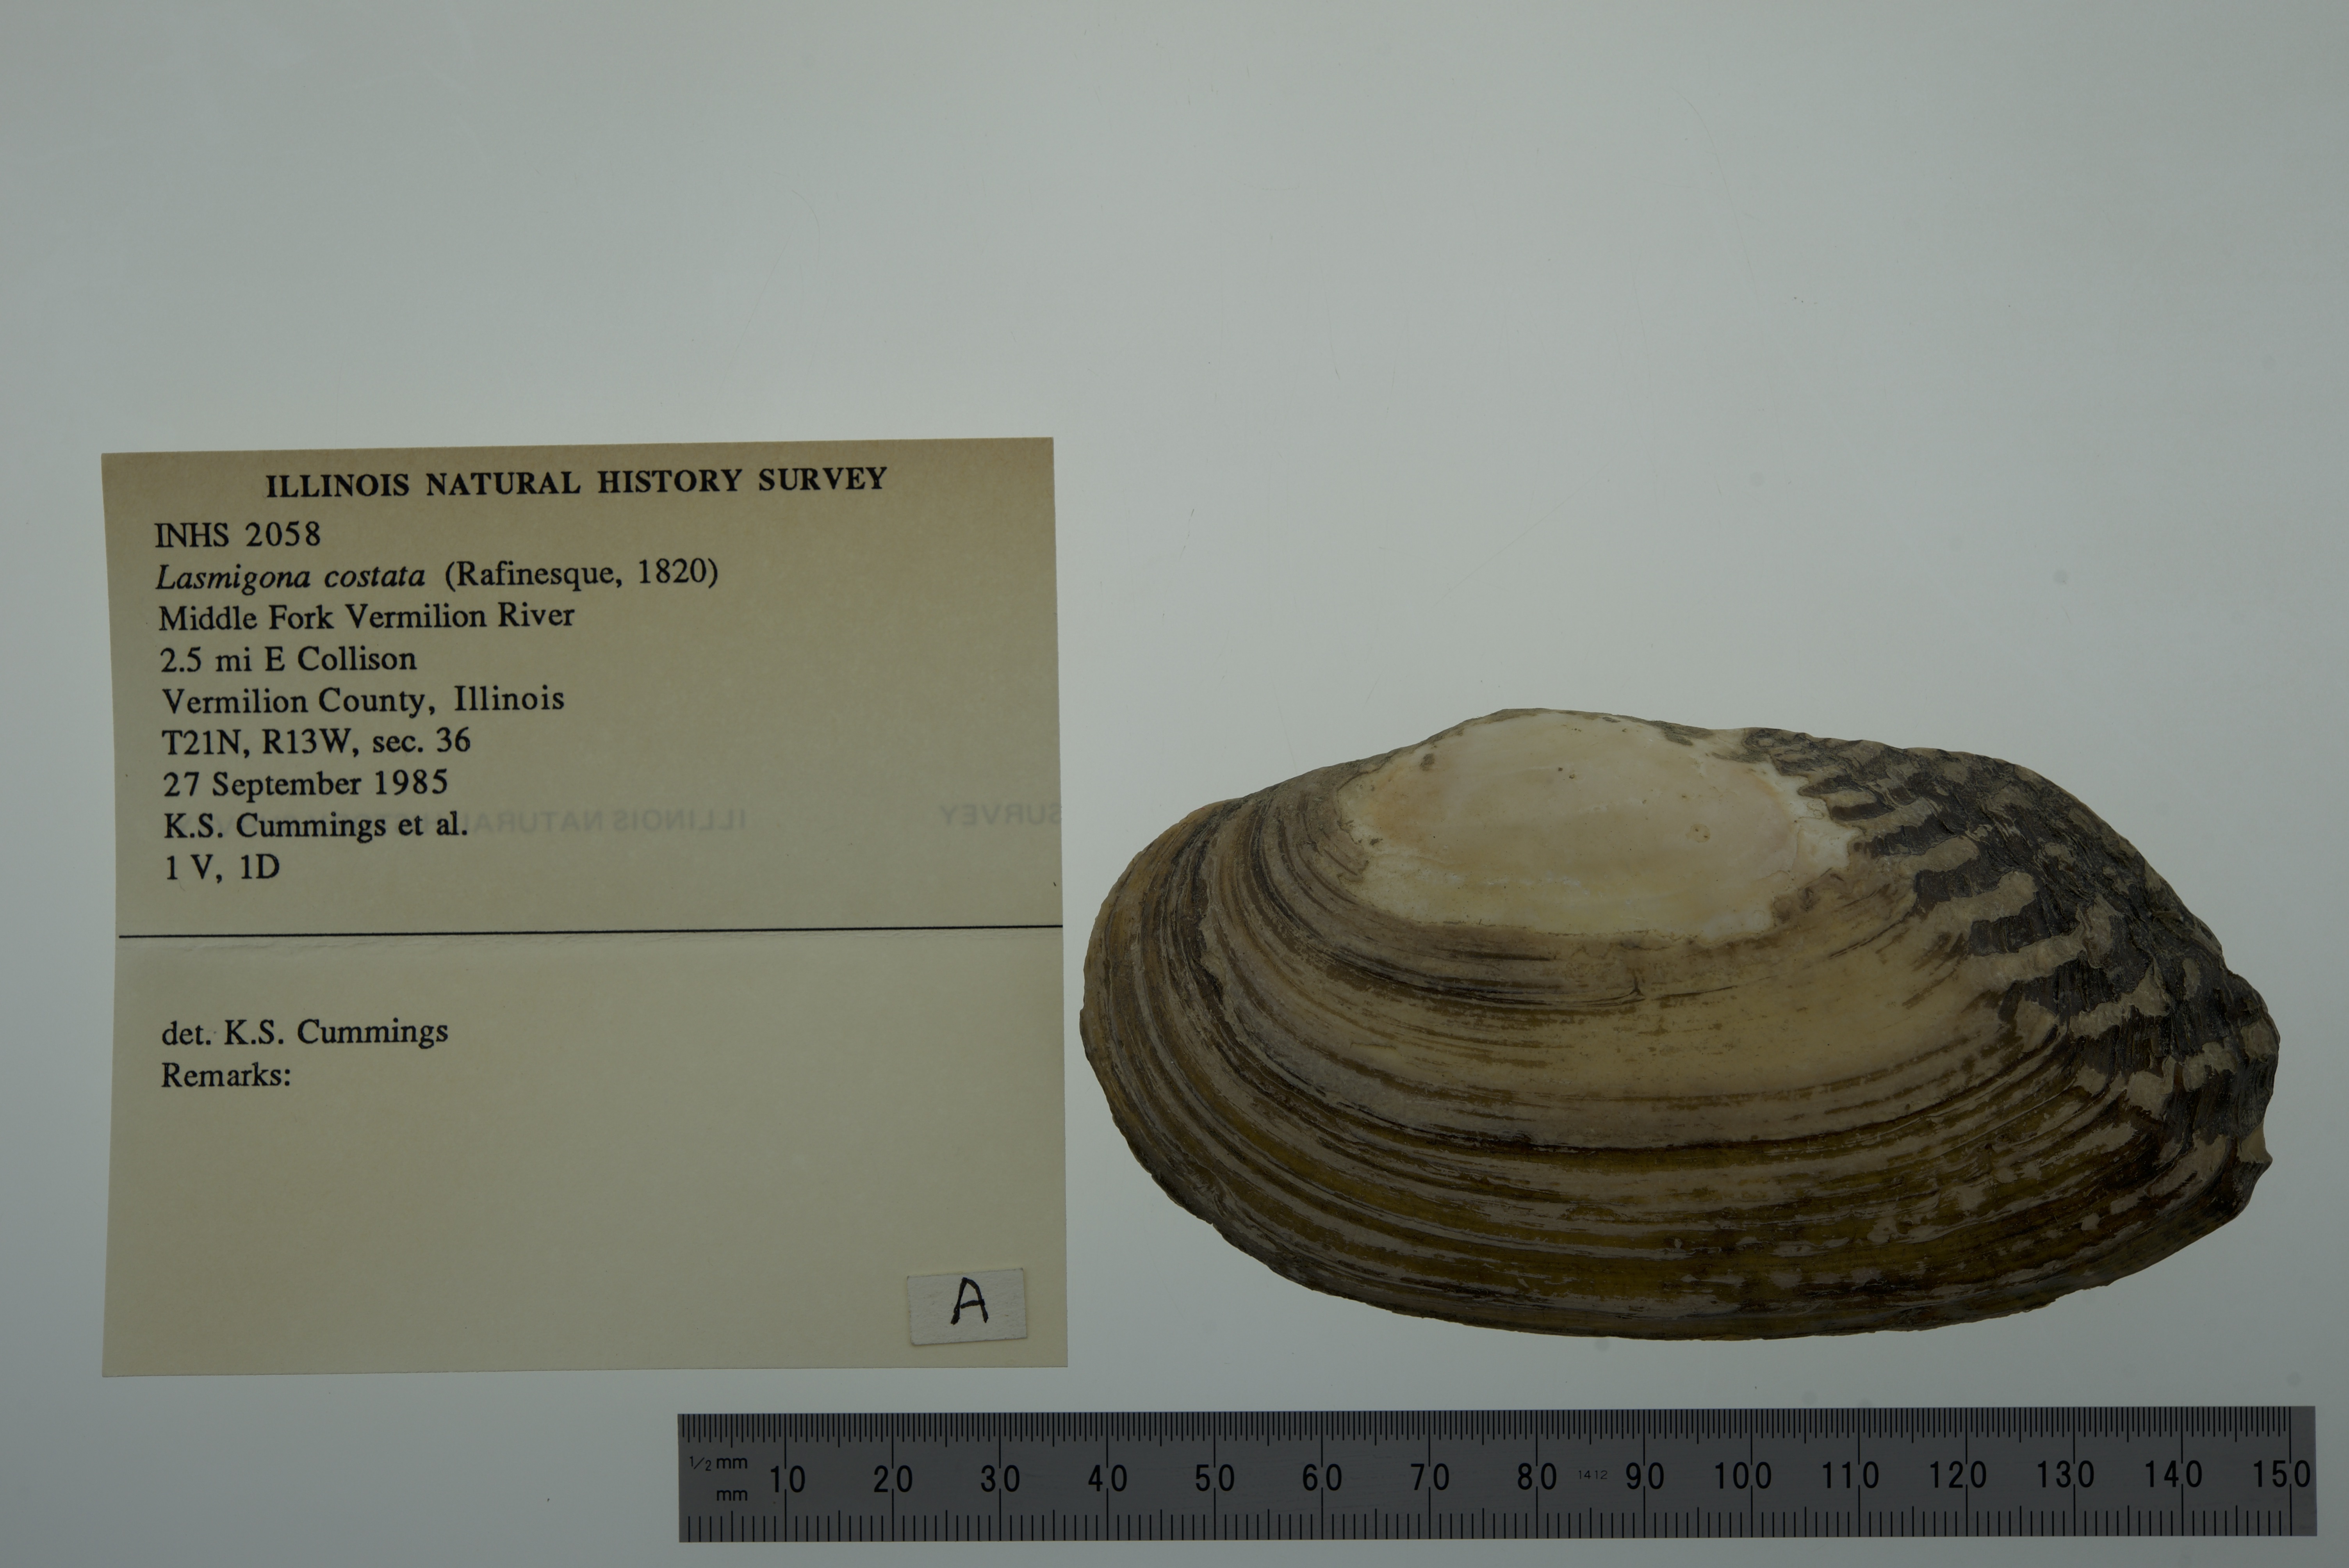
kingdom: Animalia
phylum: Mollusca
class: Bivalvia
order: Unionida
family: Unionidae
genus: Lasmigona
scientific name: Lasmigona costata
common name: Flutedshell
